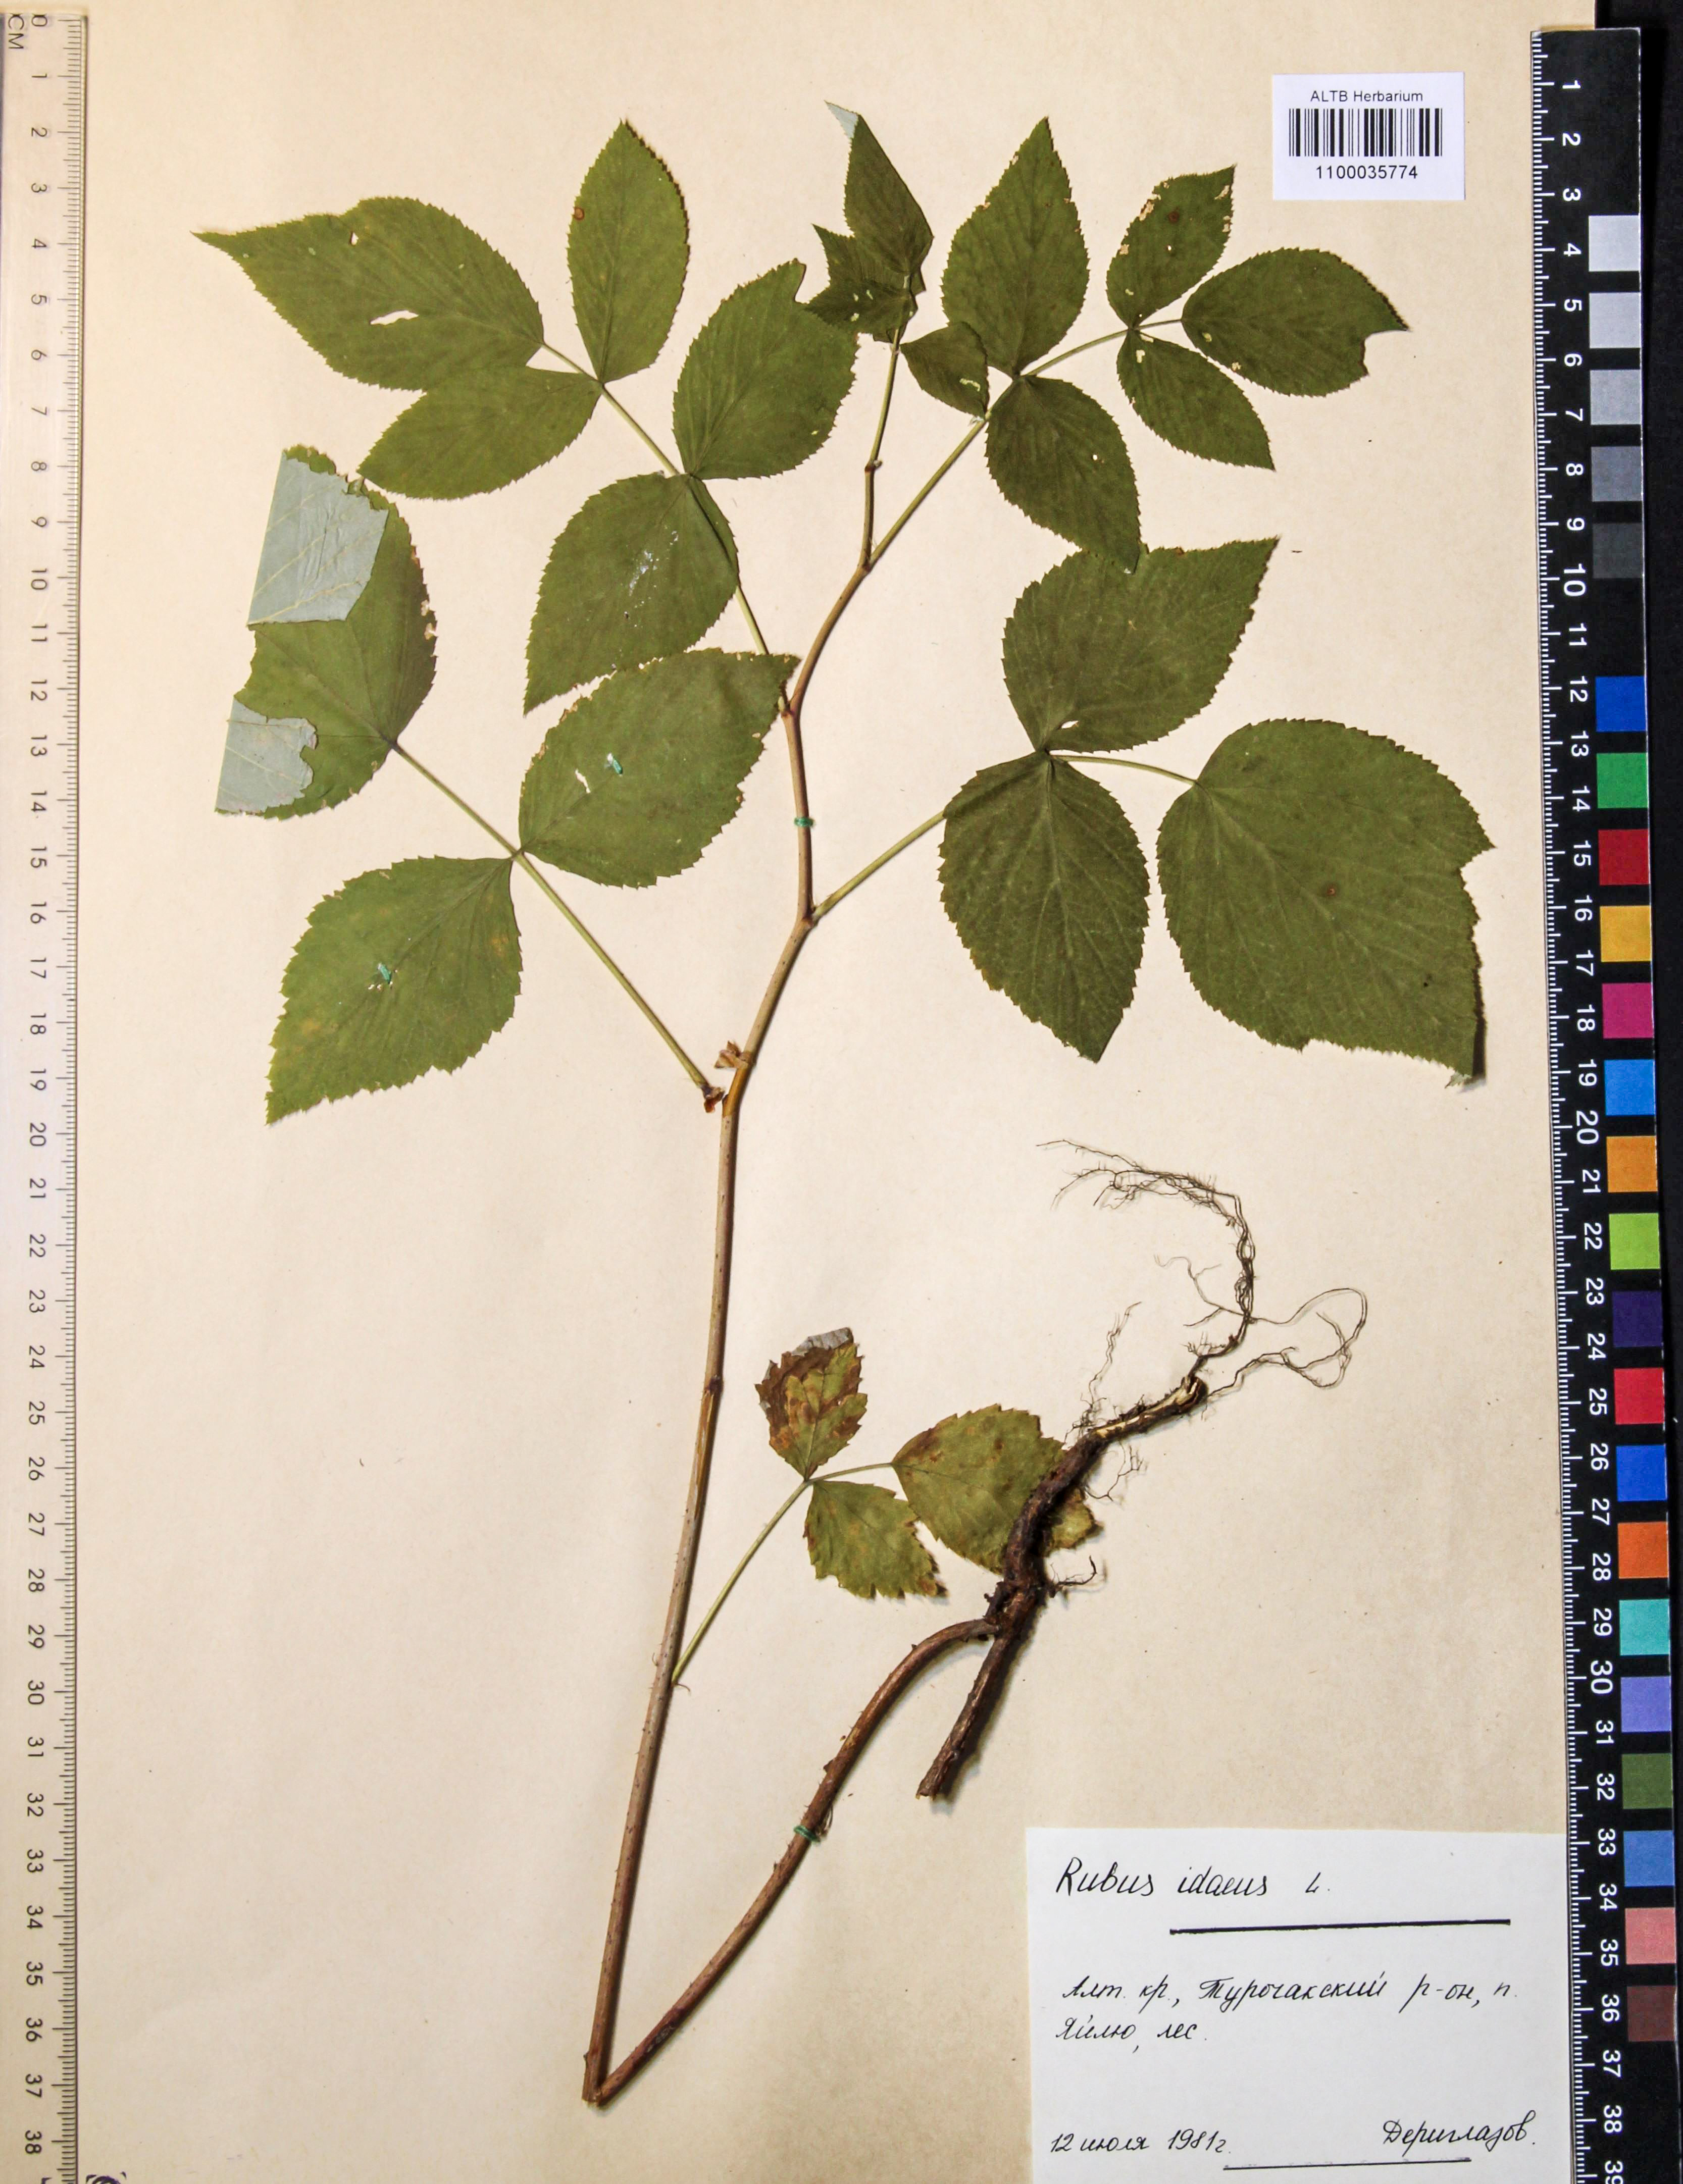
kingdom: Plantae
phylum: Tracheophyta
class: Magnoliopsida
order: Rosales
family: Rosaceae
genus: Rubus
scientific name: Rubus idaeus
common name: Raspberry
